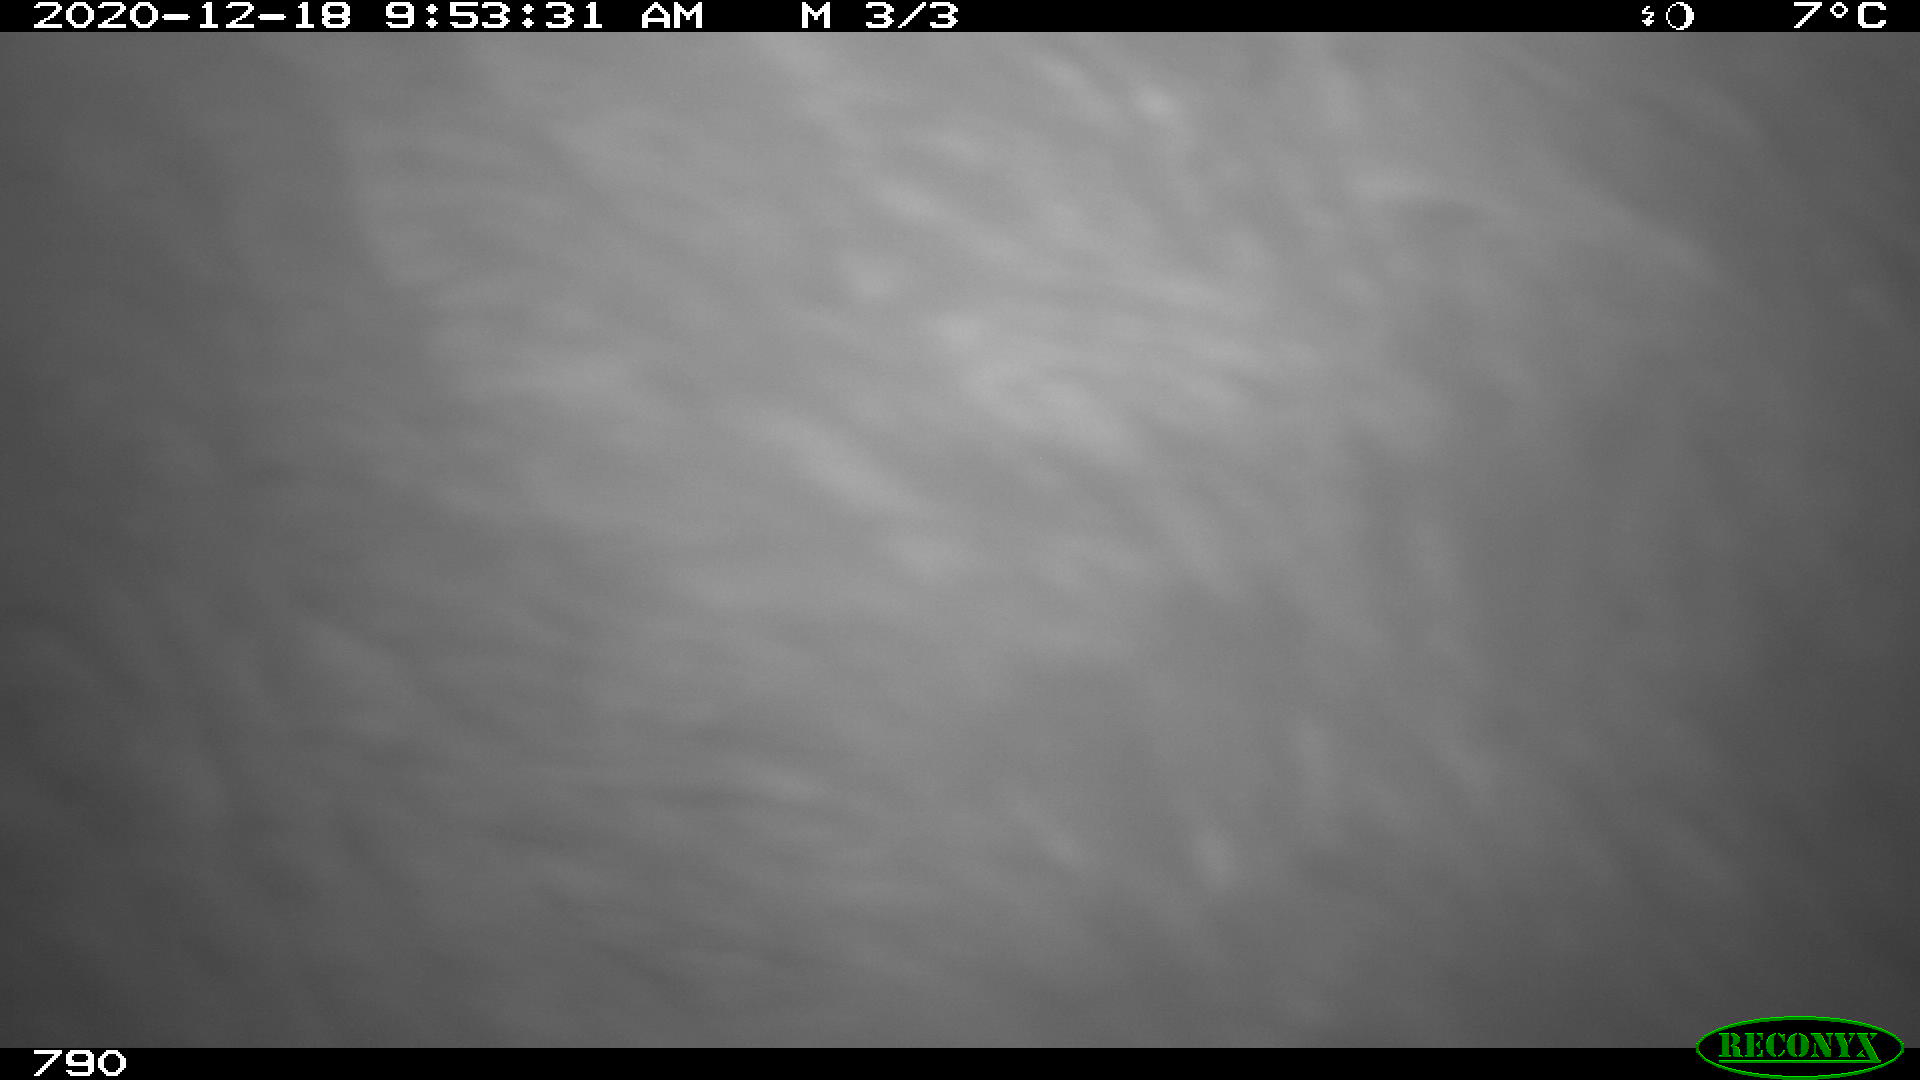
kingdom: Animalia
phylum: Chordata
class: Mammalia
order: Perissodactyla
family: Equidae
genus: Equus
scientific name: Equus caballus
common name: Horse
